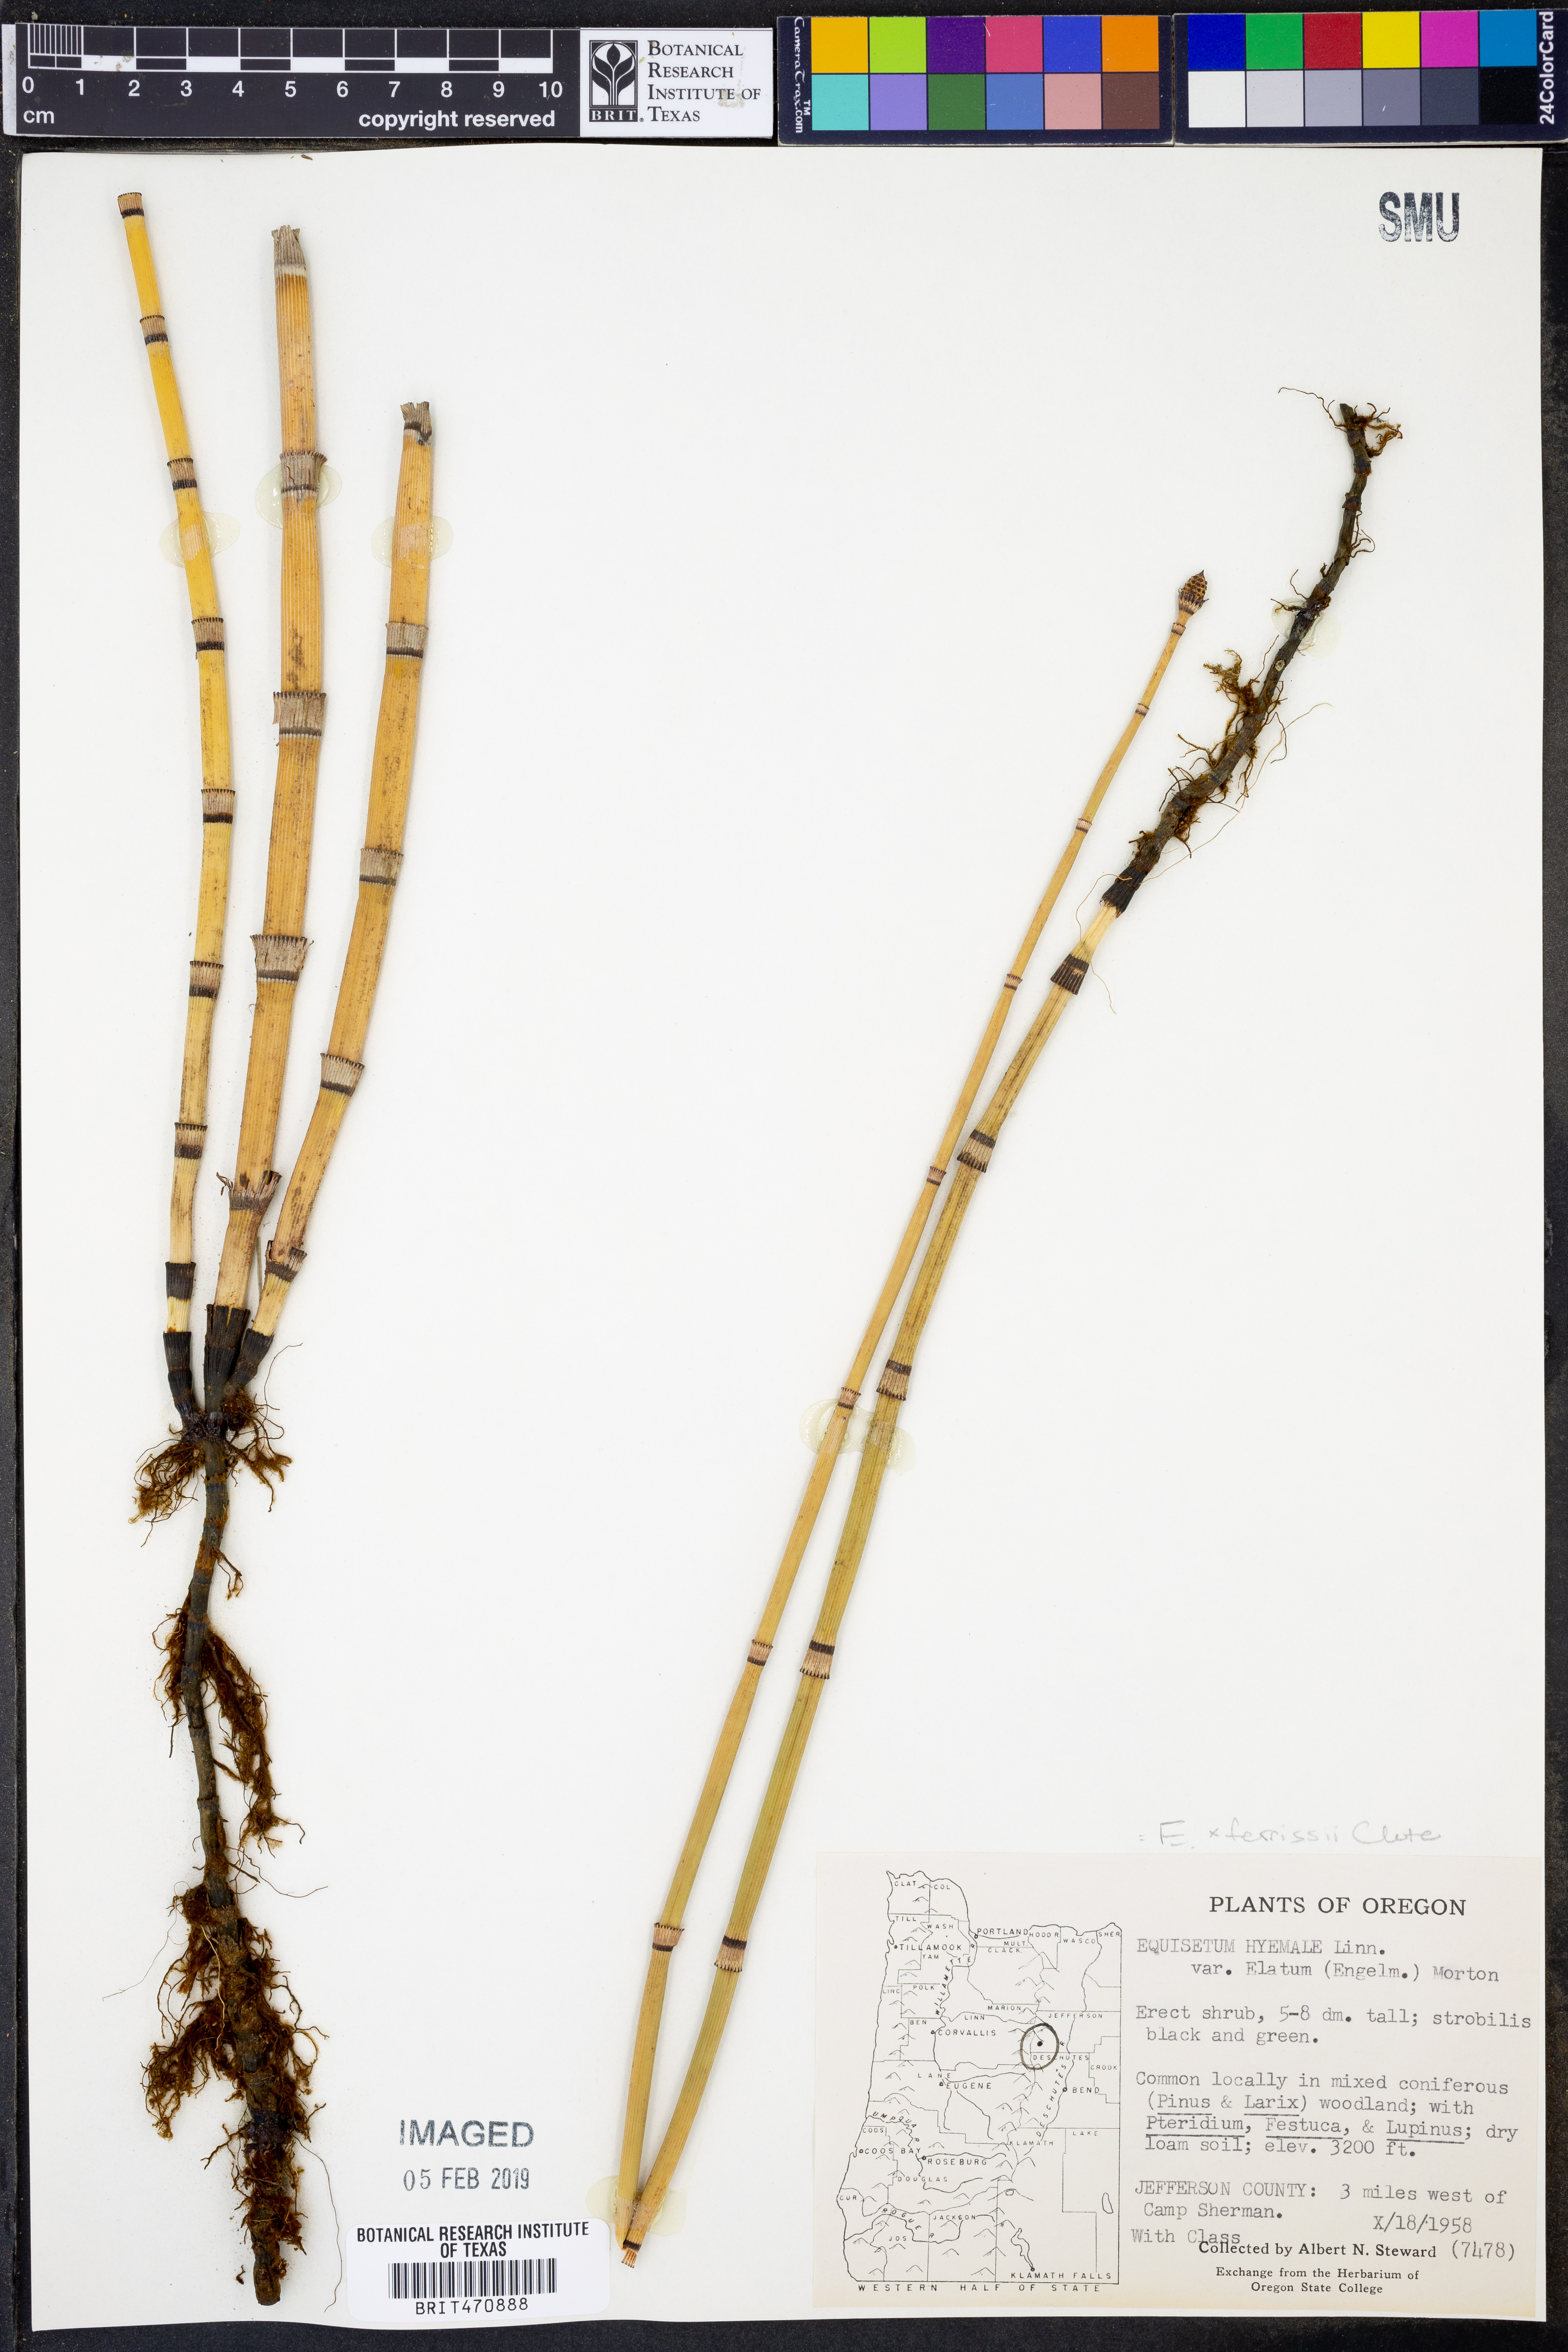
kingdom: Plantae
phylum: Tracheophyta
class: Polypodiopsida
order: Equisetales
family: Equisetaceae
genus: Equisetum
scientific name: Equisetum
